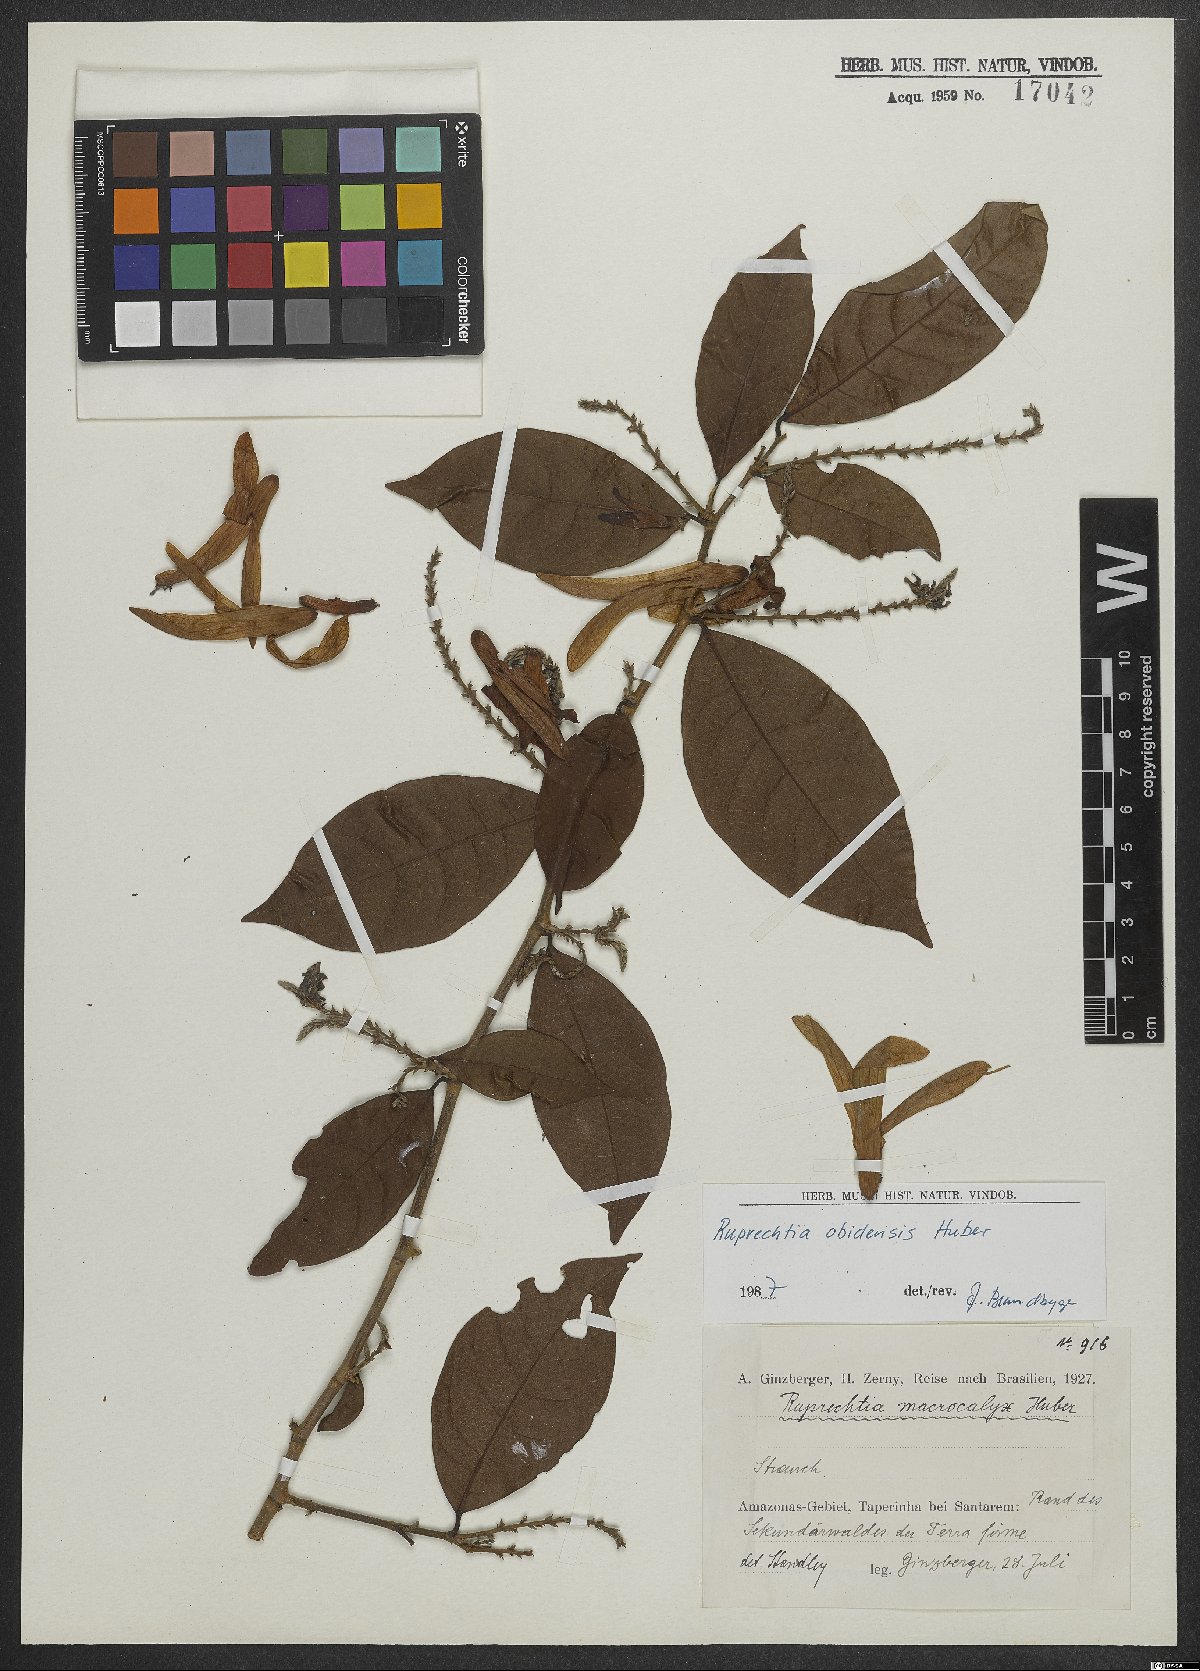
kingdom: Plantae
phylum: Tracheophyta
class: Magnoliopsida
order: Caryophyllales
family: Polygonaceae
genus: Magoniella
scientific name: Magoniella obidensis
